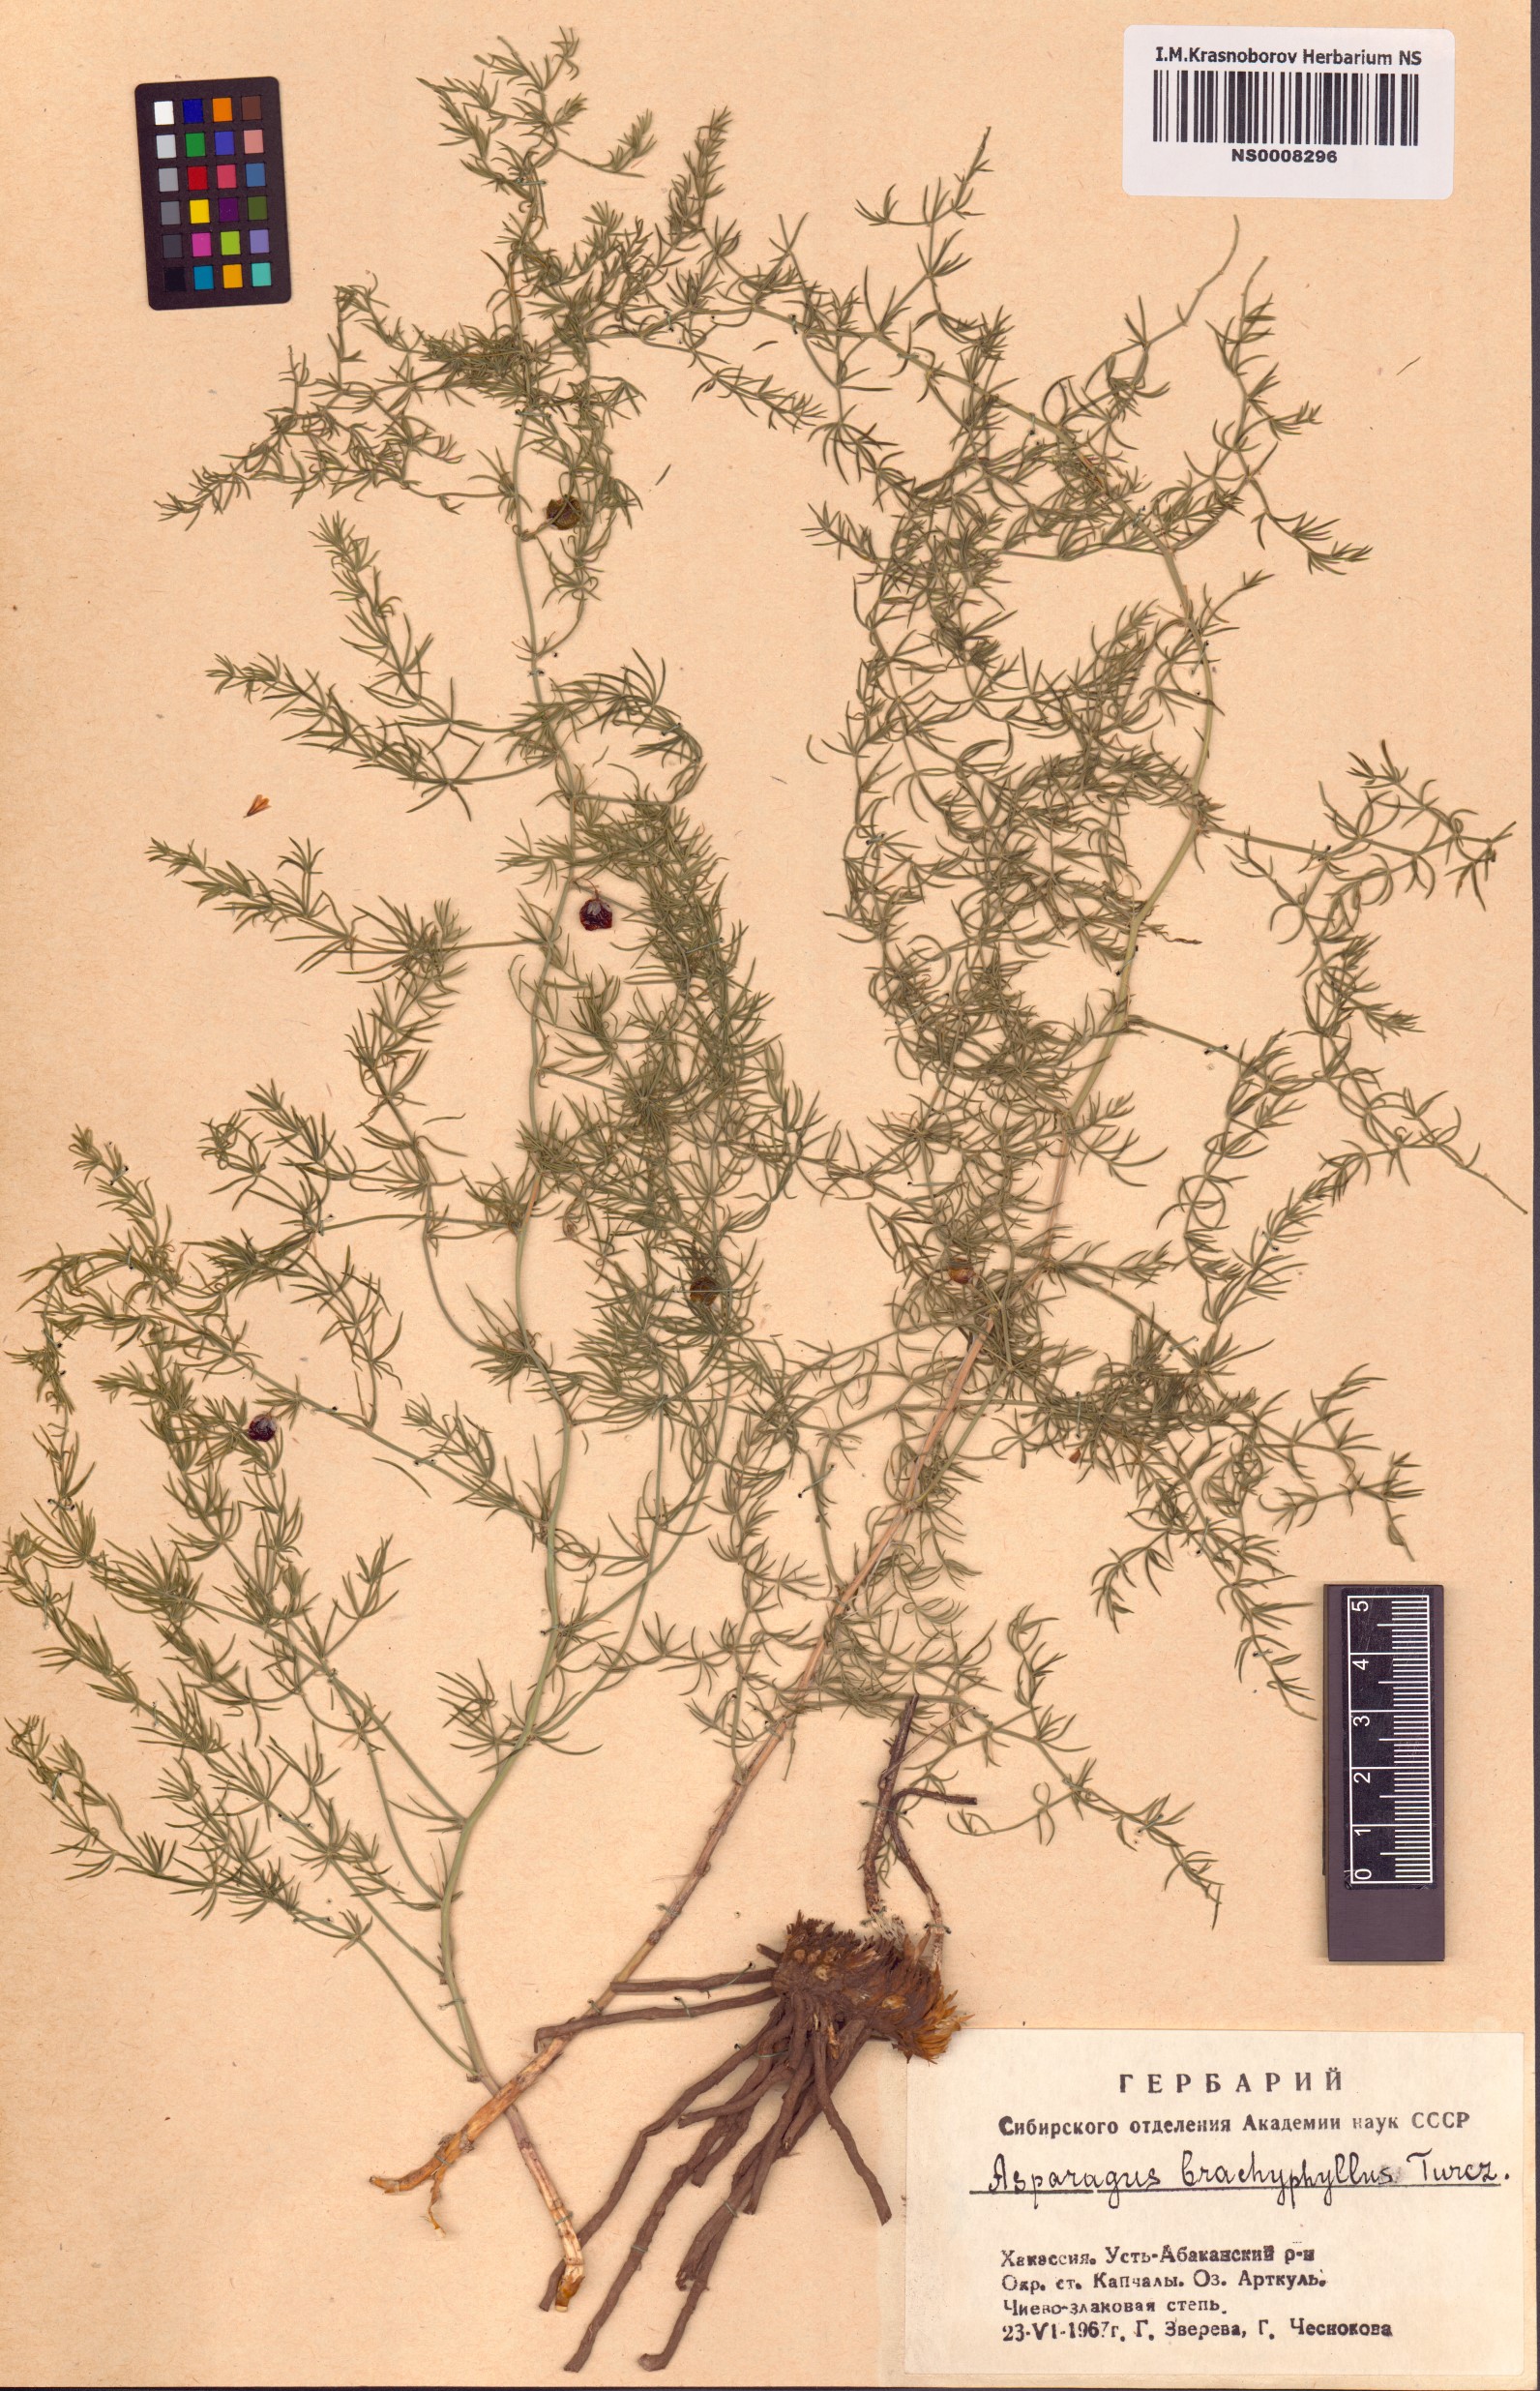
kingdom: Plantae
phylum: Tracheophyta
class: Liliopsida
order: Asparagales
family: Asparagaceae
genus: Asparagus
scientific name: Asparagus brachyphyllus
